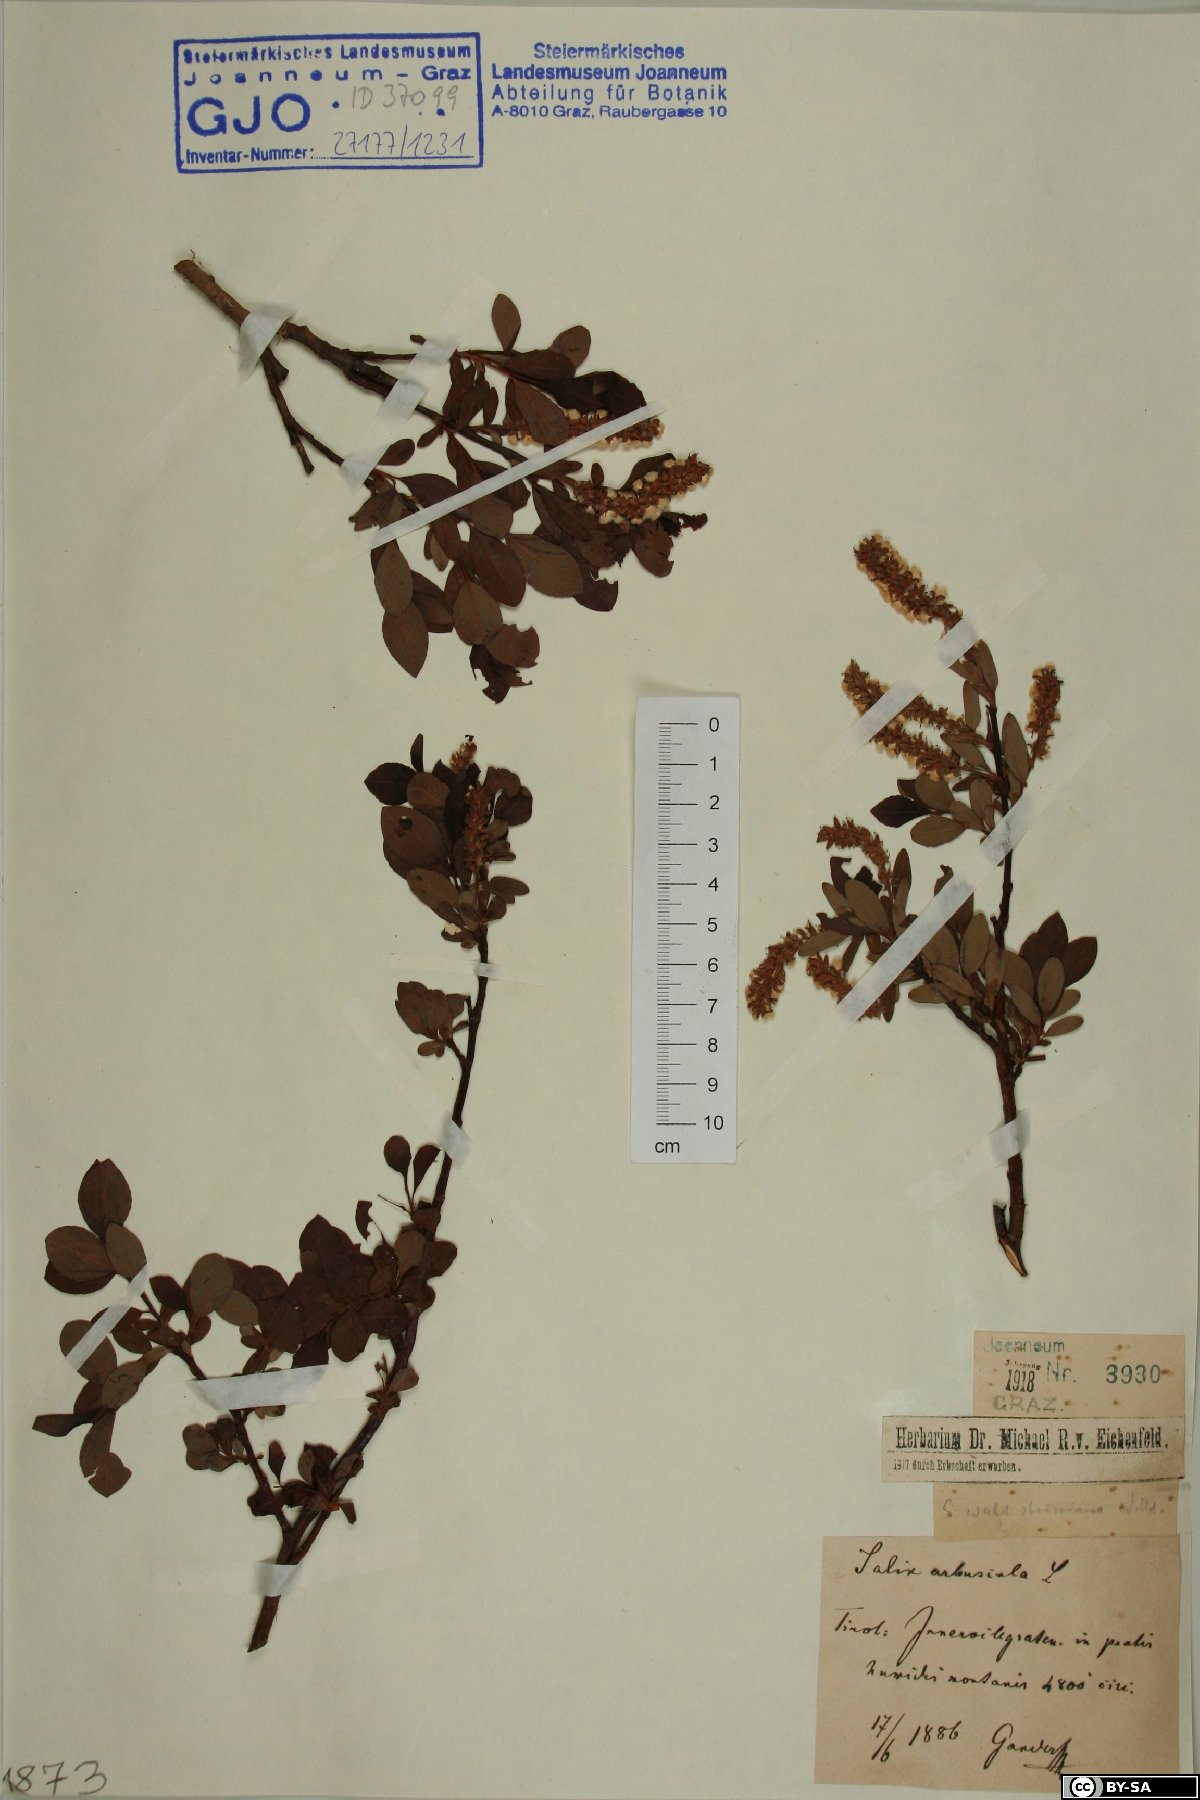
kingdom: Plantae
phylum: Tracheophyta
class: Magnoliopsida
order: Malpighiales
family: Salicaceae
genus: Salix
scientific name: Salix waldsteiniana
